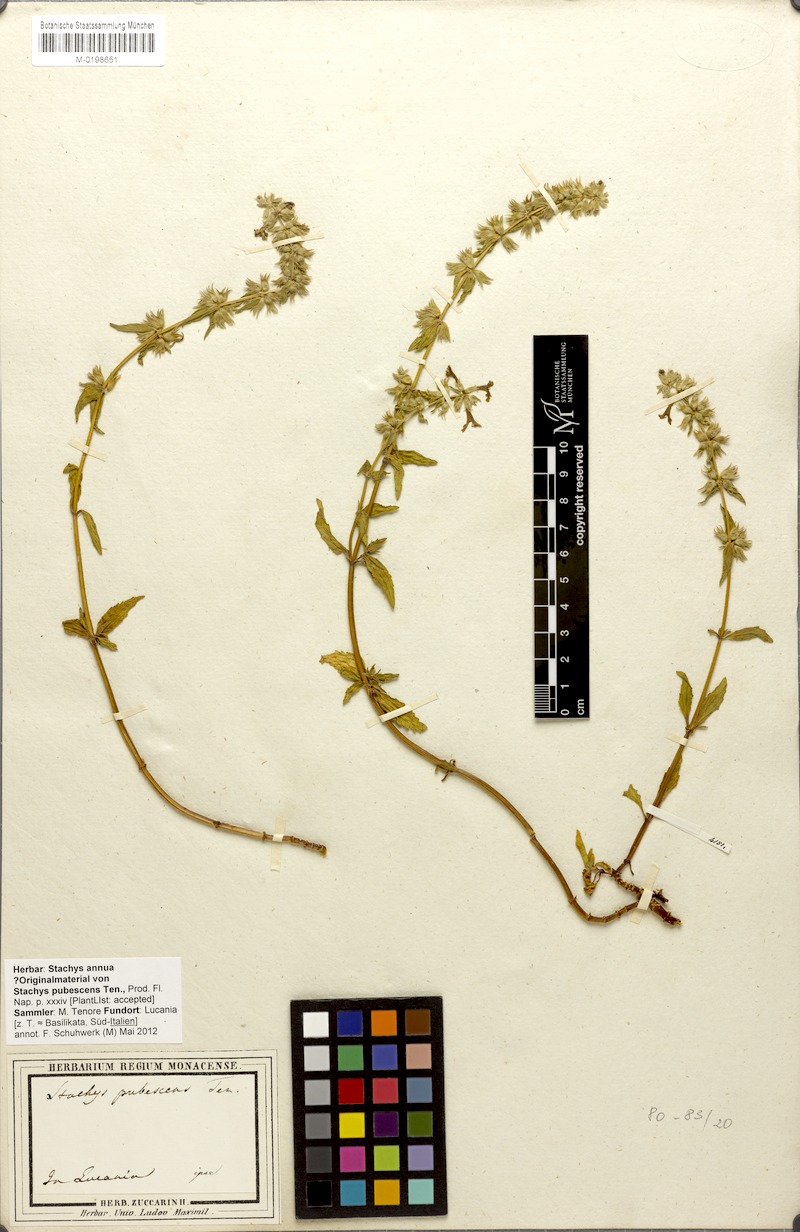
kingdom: Plantae
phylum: Tracheophyta
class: Magnoliopsida
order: Lamiales
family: Lamiaceae
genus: Stachys
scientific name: Stachys annua
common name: Annual yellow-woundwort
